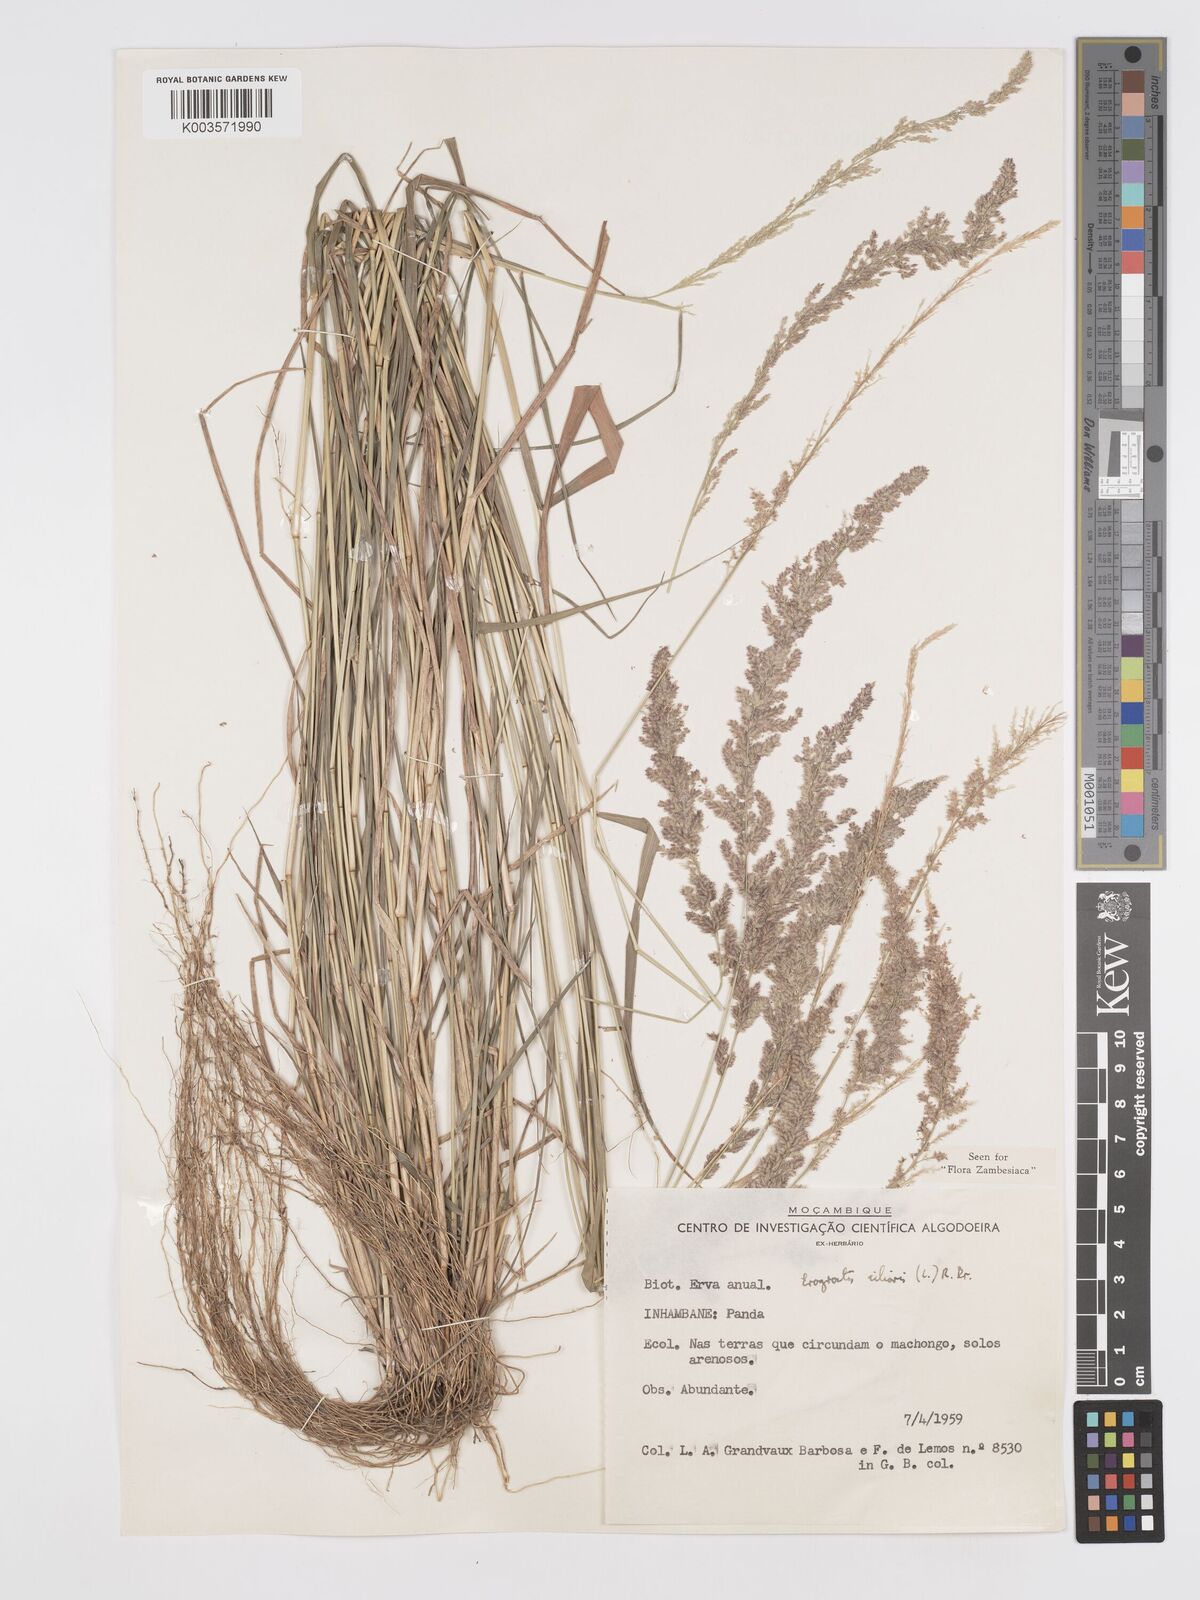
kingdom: Plantae
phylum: Tracheophyta
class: Liliopsida
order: Poales
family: Poaceae
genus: Eragrostis
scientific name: Eragrostis ciliaris
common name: Gophertail lovegrass
